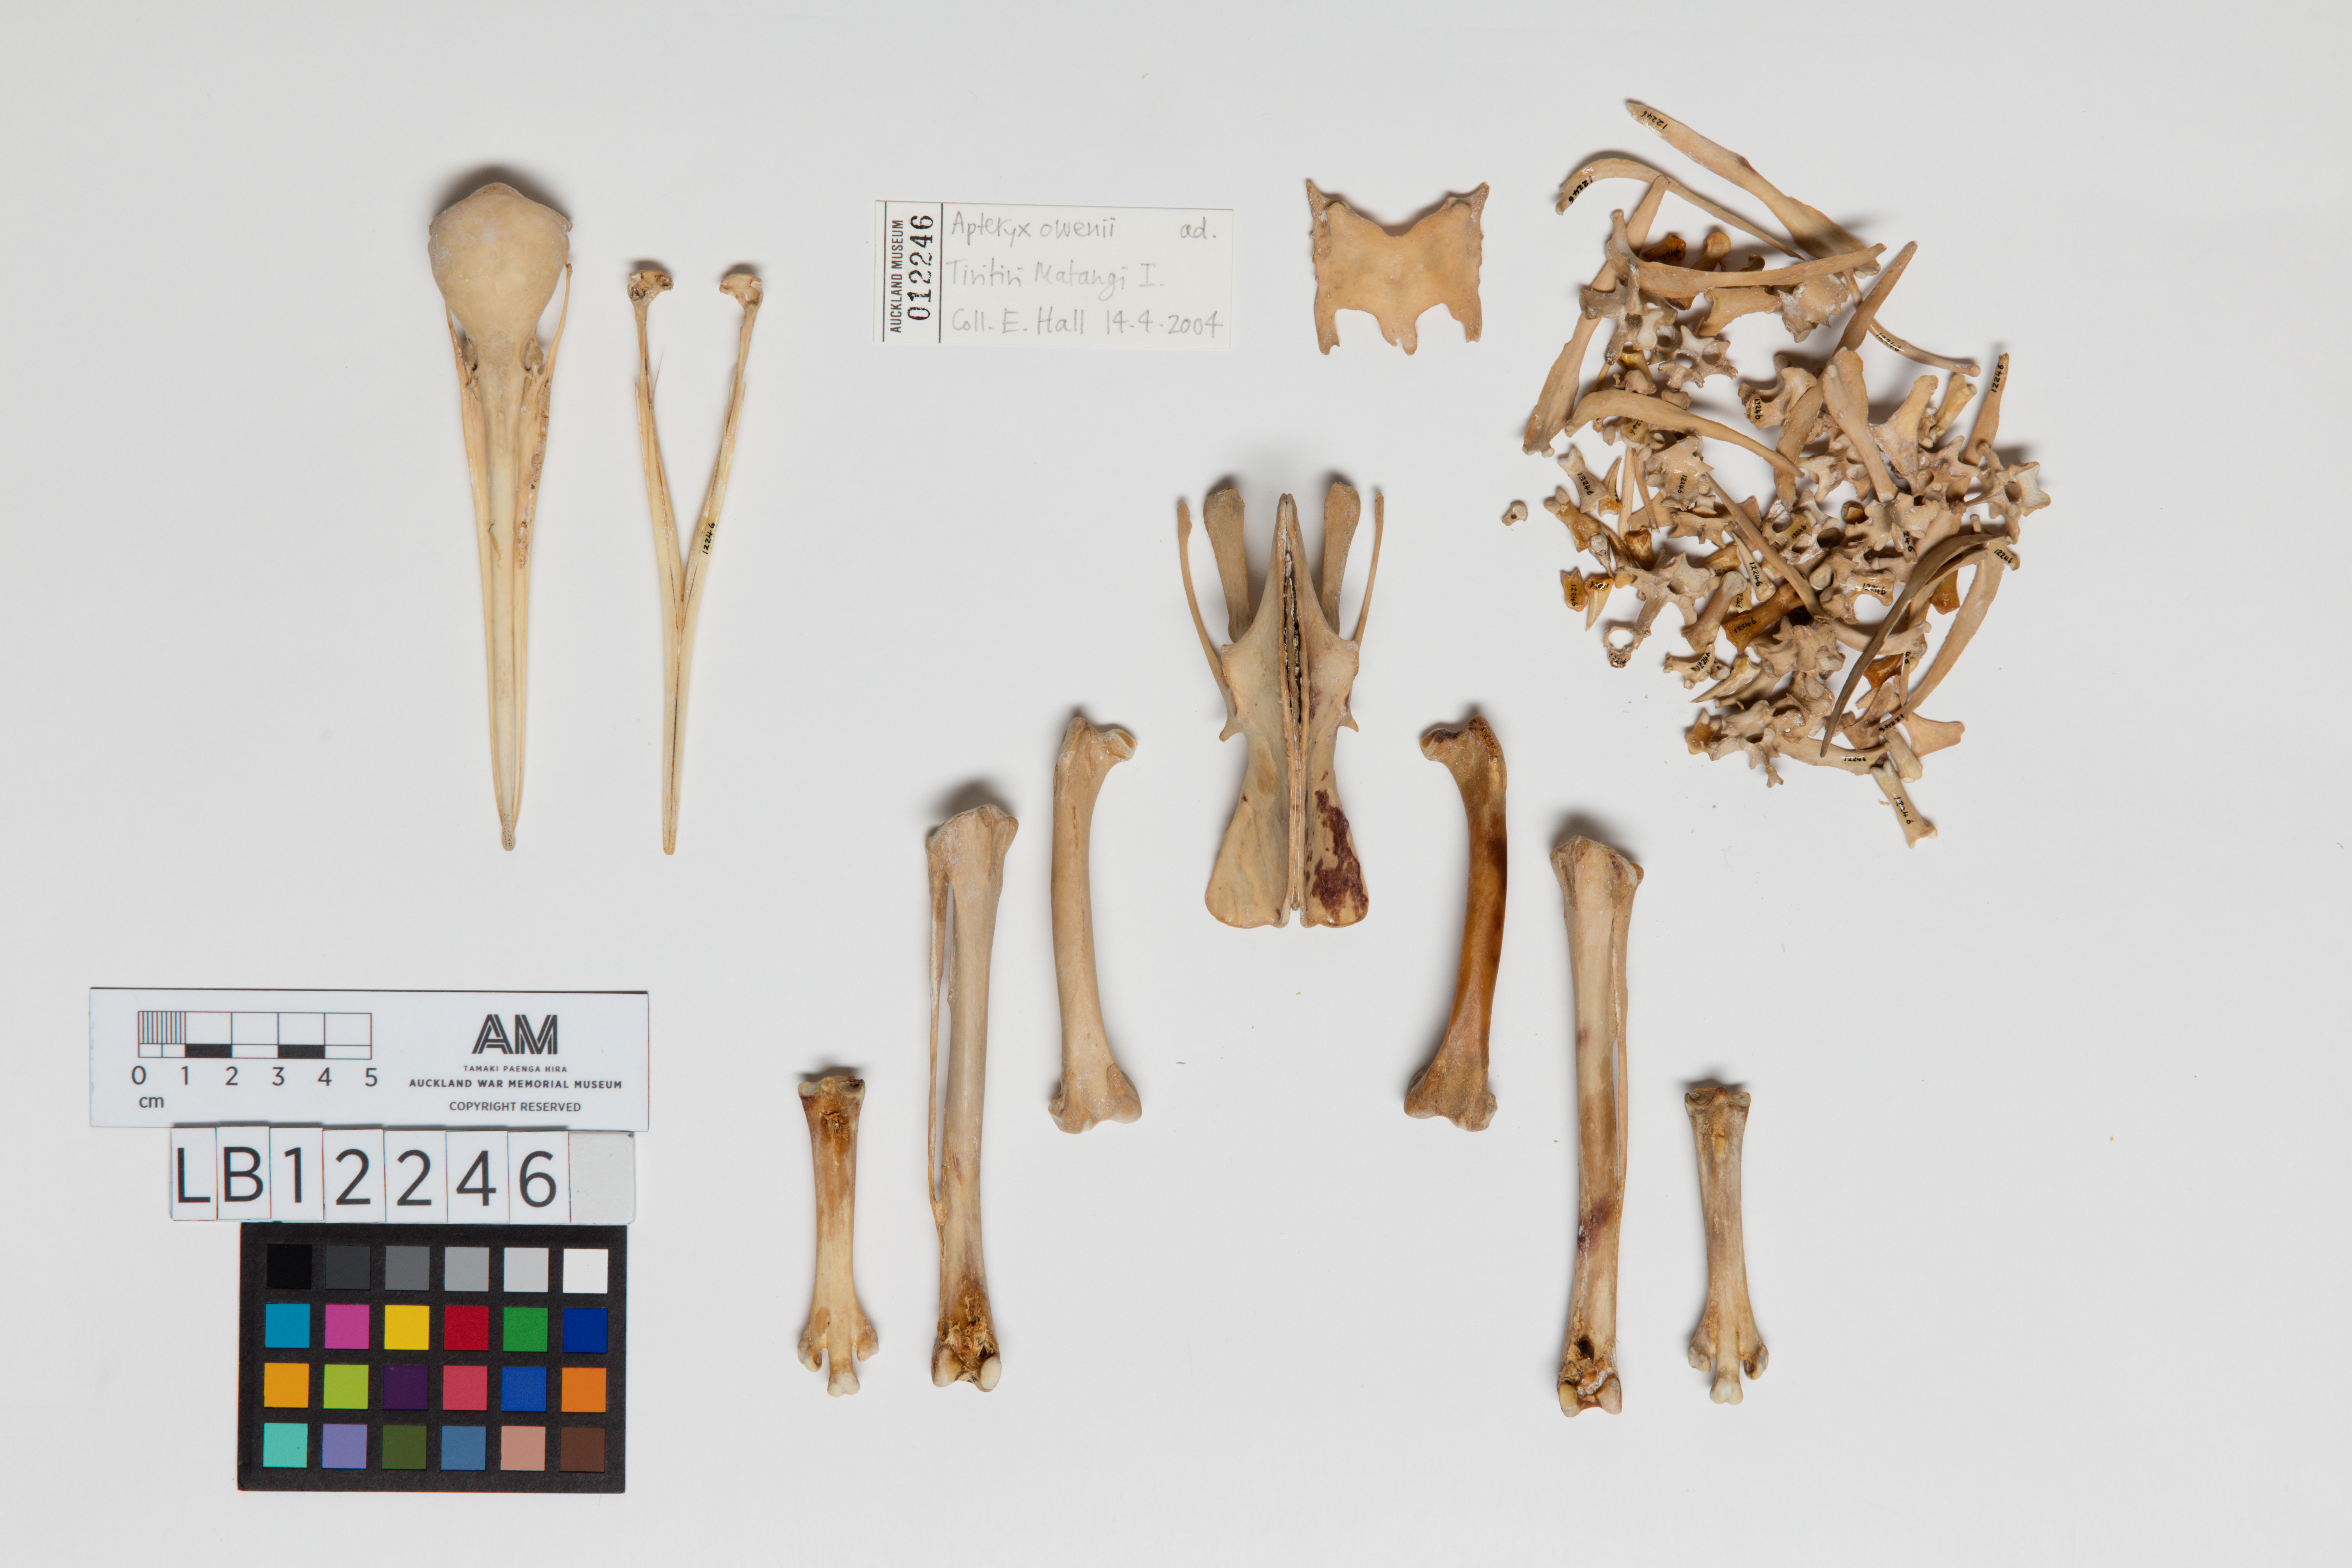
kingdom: Animalia
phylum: Chordata
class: Aves
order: Apterygiformes
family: Apterygidae
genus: Apteryx
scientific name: Apteryx owenii
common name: Little spotted kiwi
